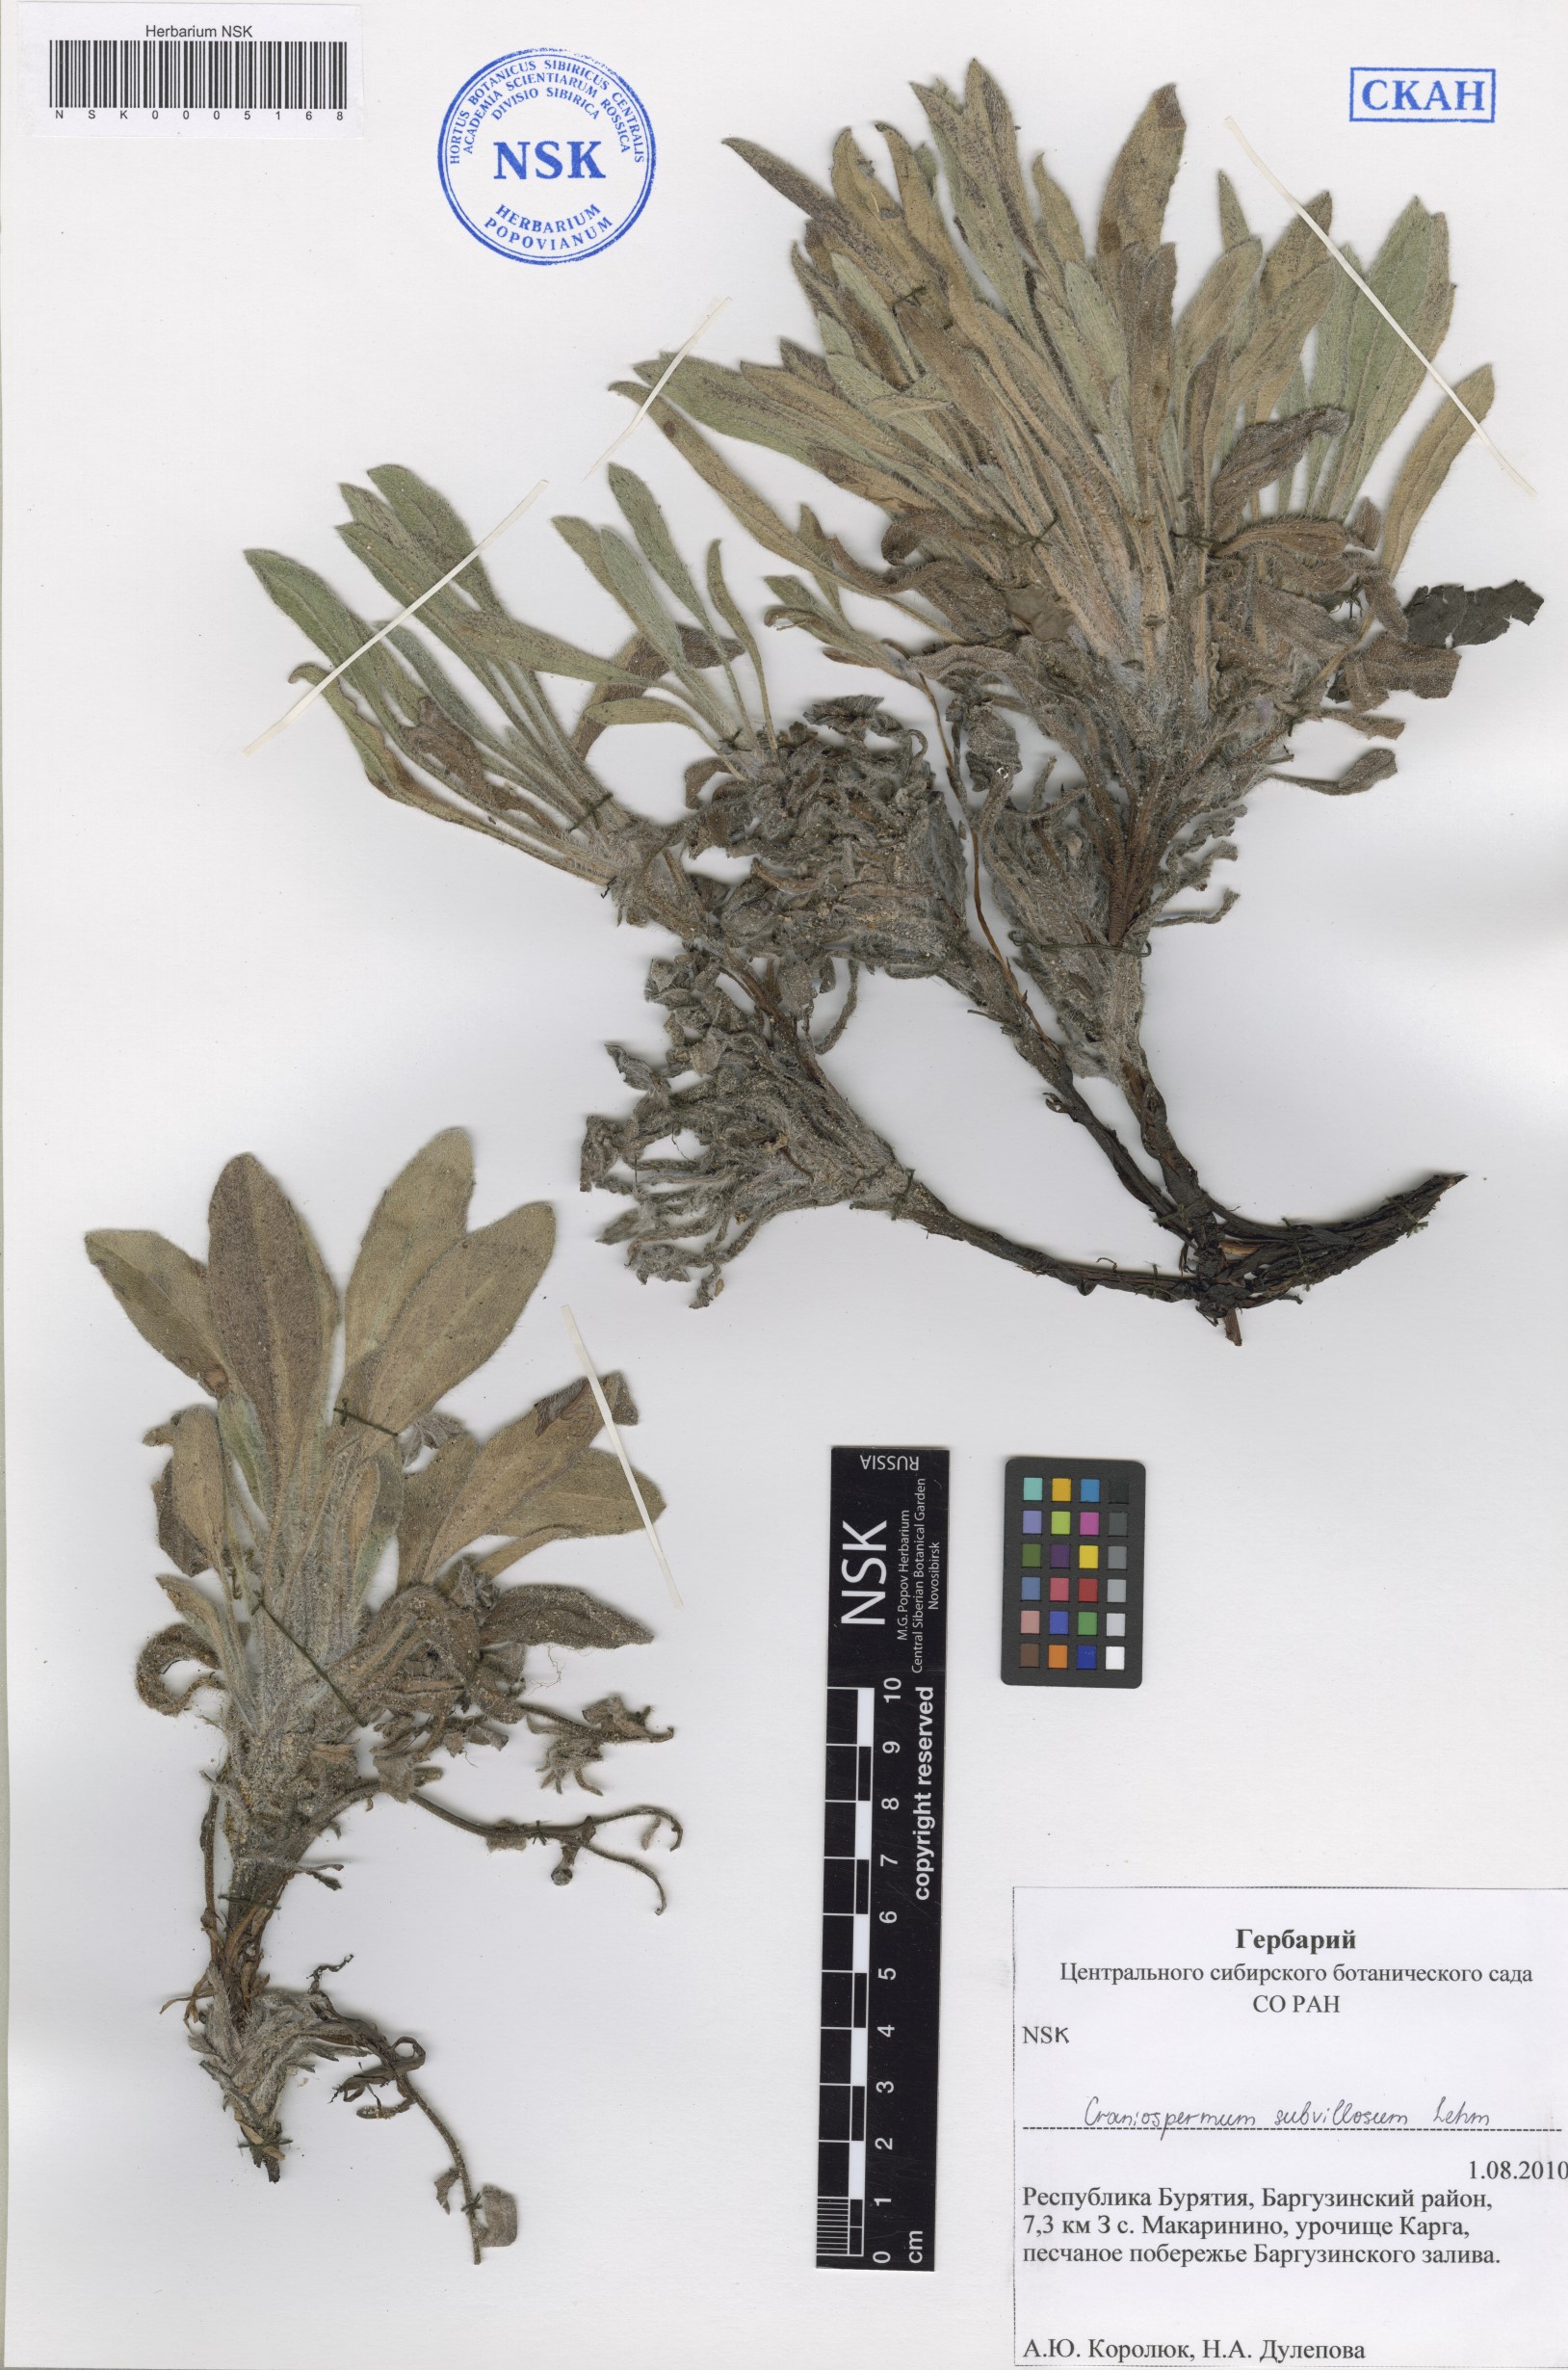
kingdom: Plantae
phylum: Tracheophyta
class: Magnoliopsida
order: Boraginales
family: Boraginaceae
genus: Craniospermum
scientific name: Craniospermum subvillosum
